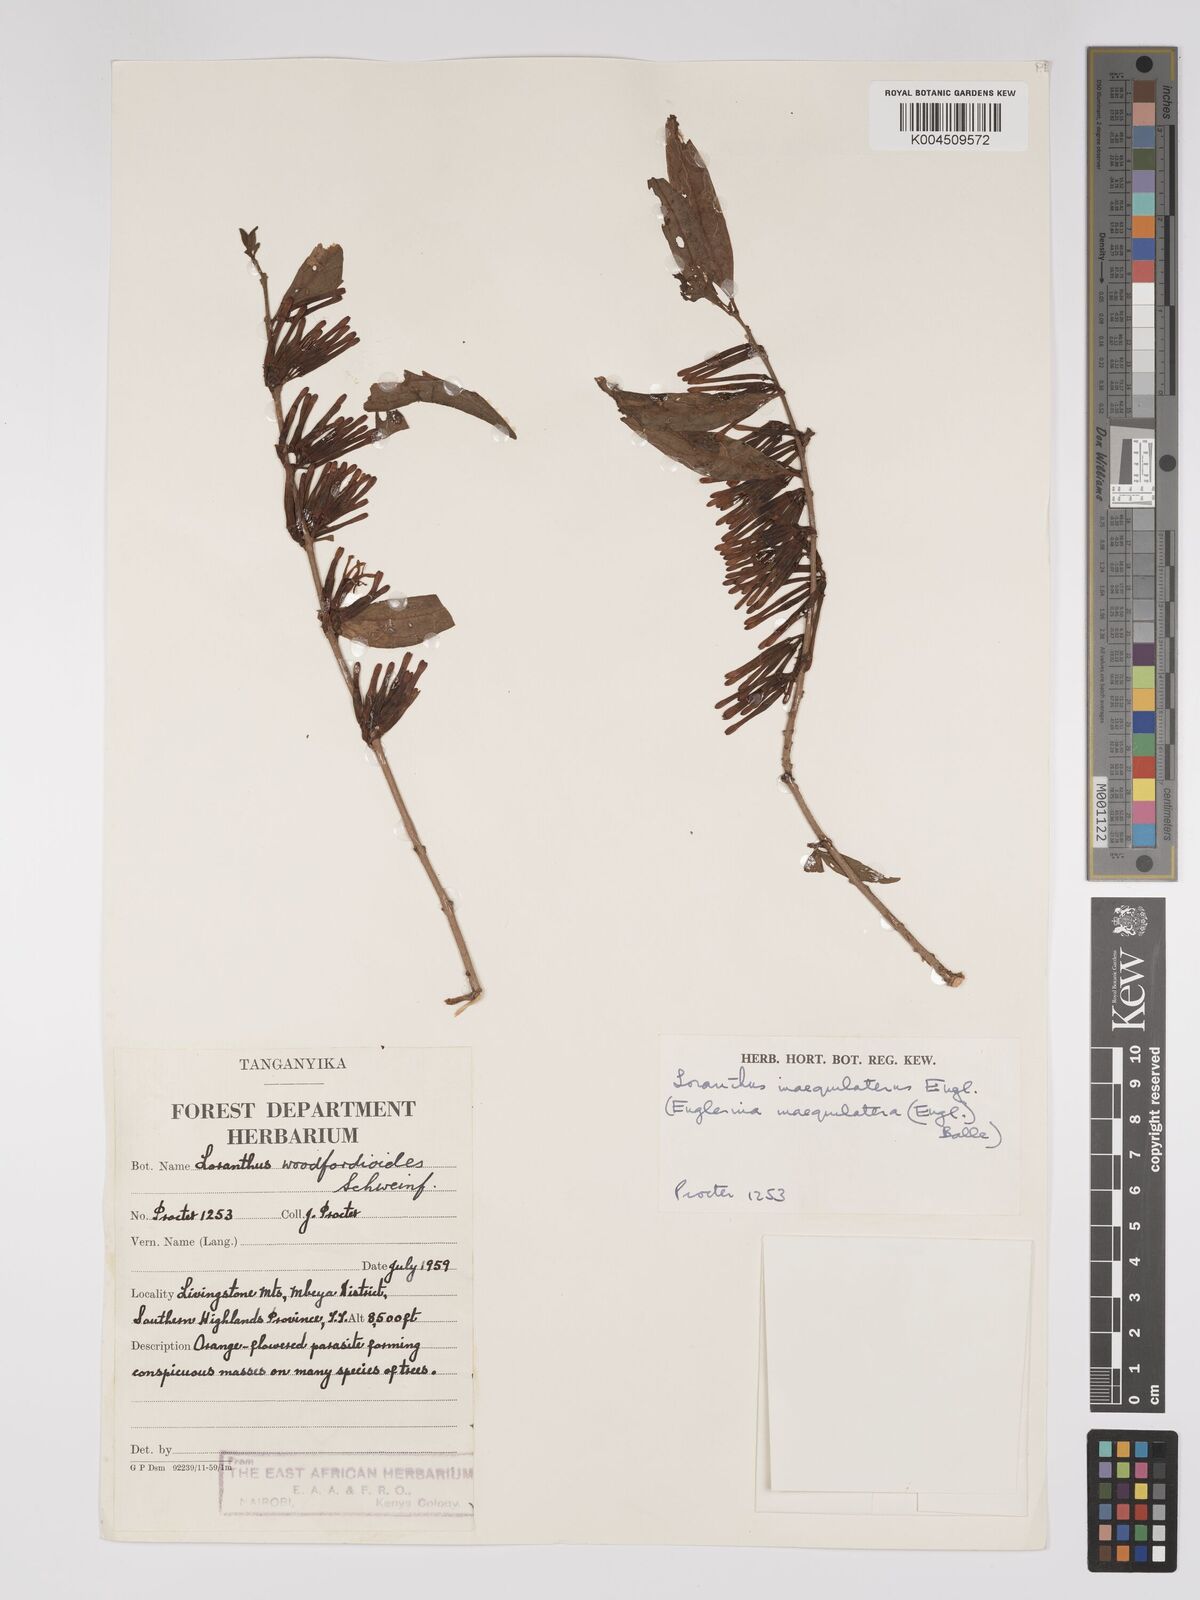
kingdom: Plantae
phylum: Tracheophyta
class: Magnoliopsida
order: Santalales
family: Loranthaceae
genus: Englerina
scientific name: Englerina inaequilatera
